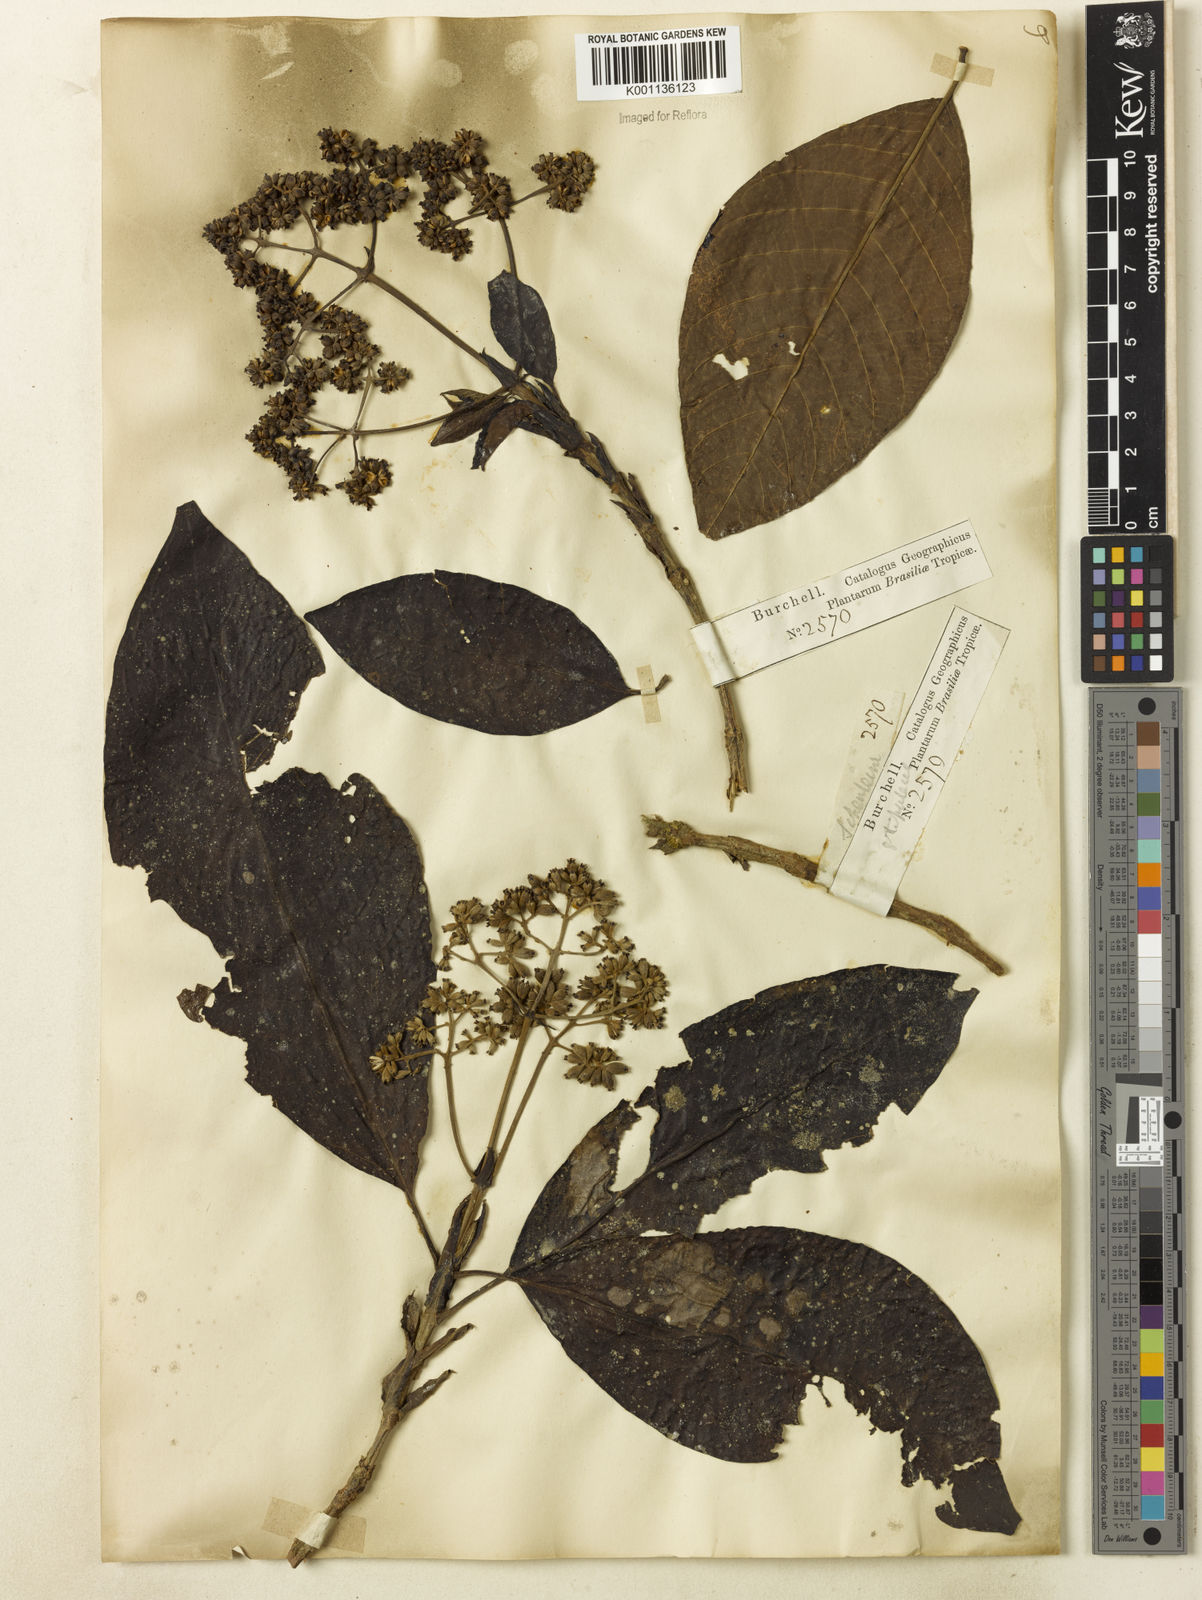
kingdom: Plantae
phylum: Tracheophyta
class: Magnoliopsida
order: Gentianales
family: Rubiaceae
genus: Bathysa
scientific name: Bathysa stipulata
